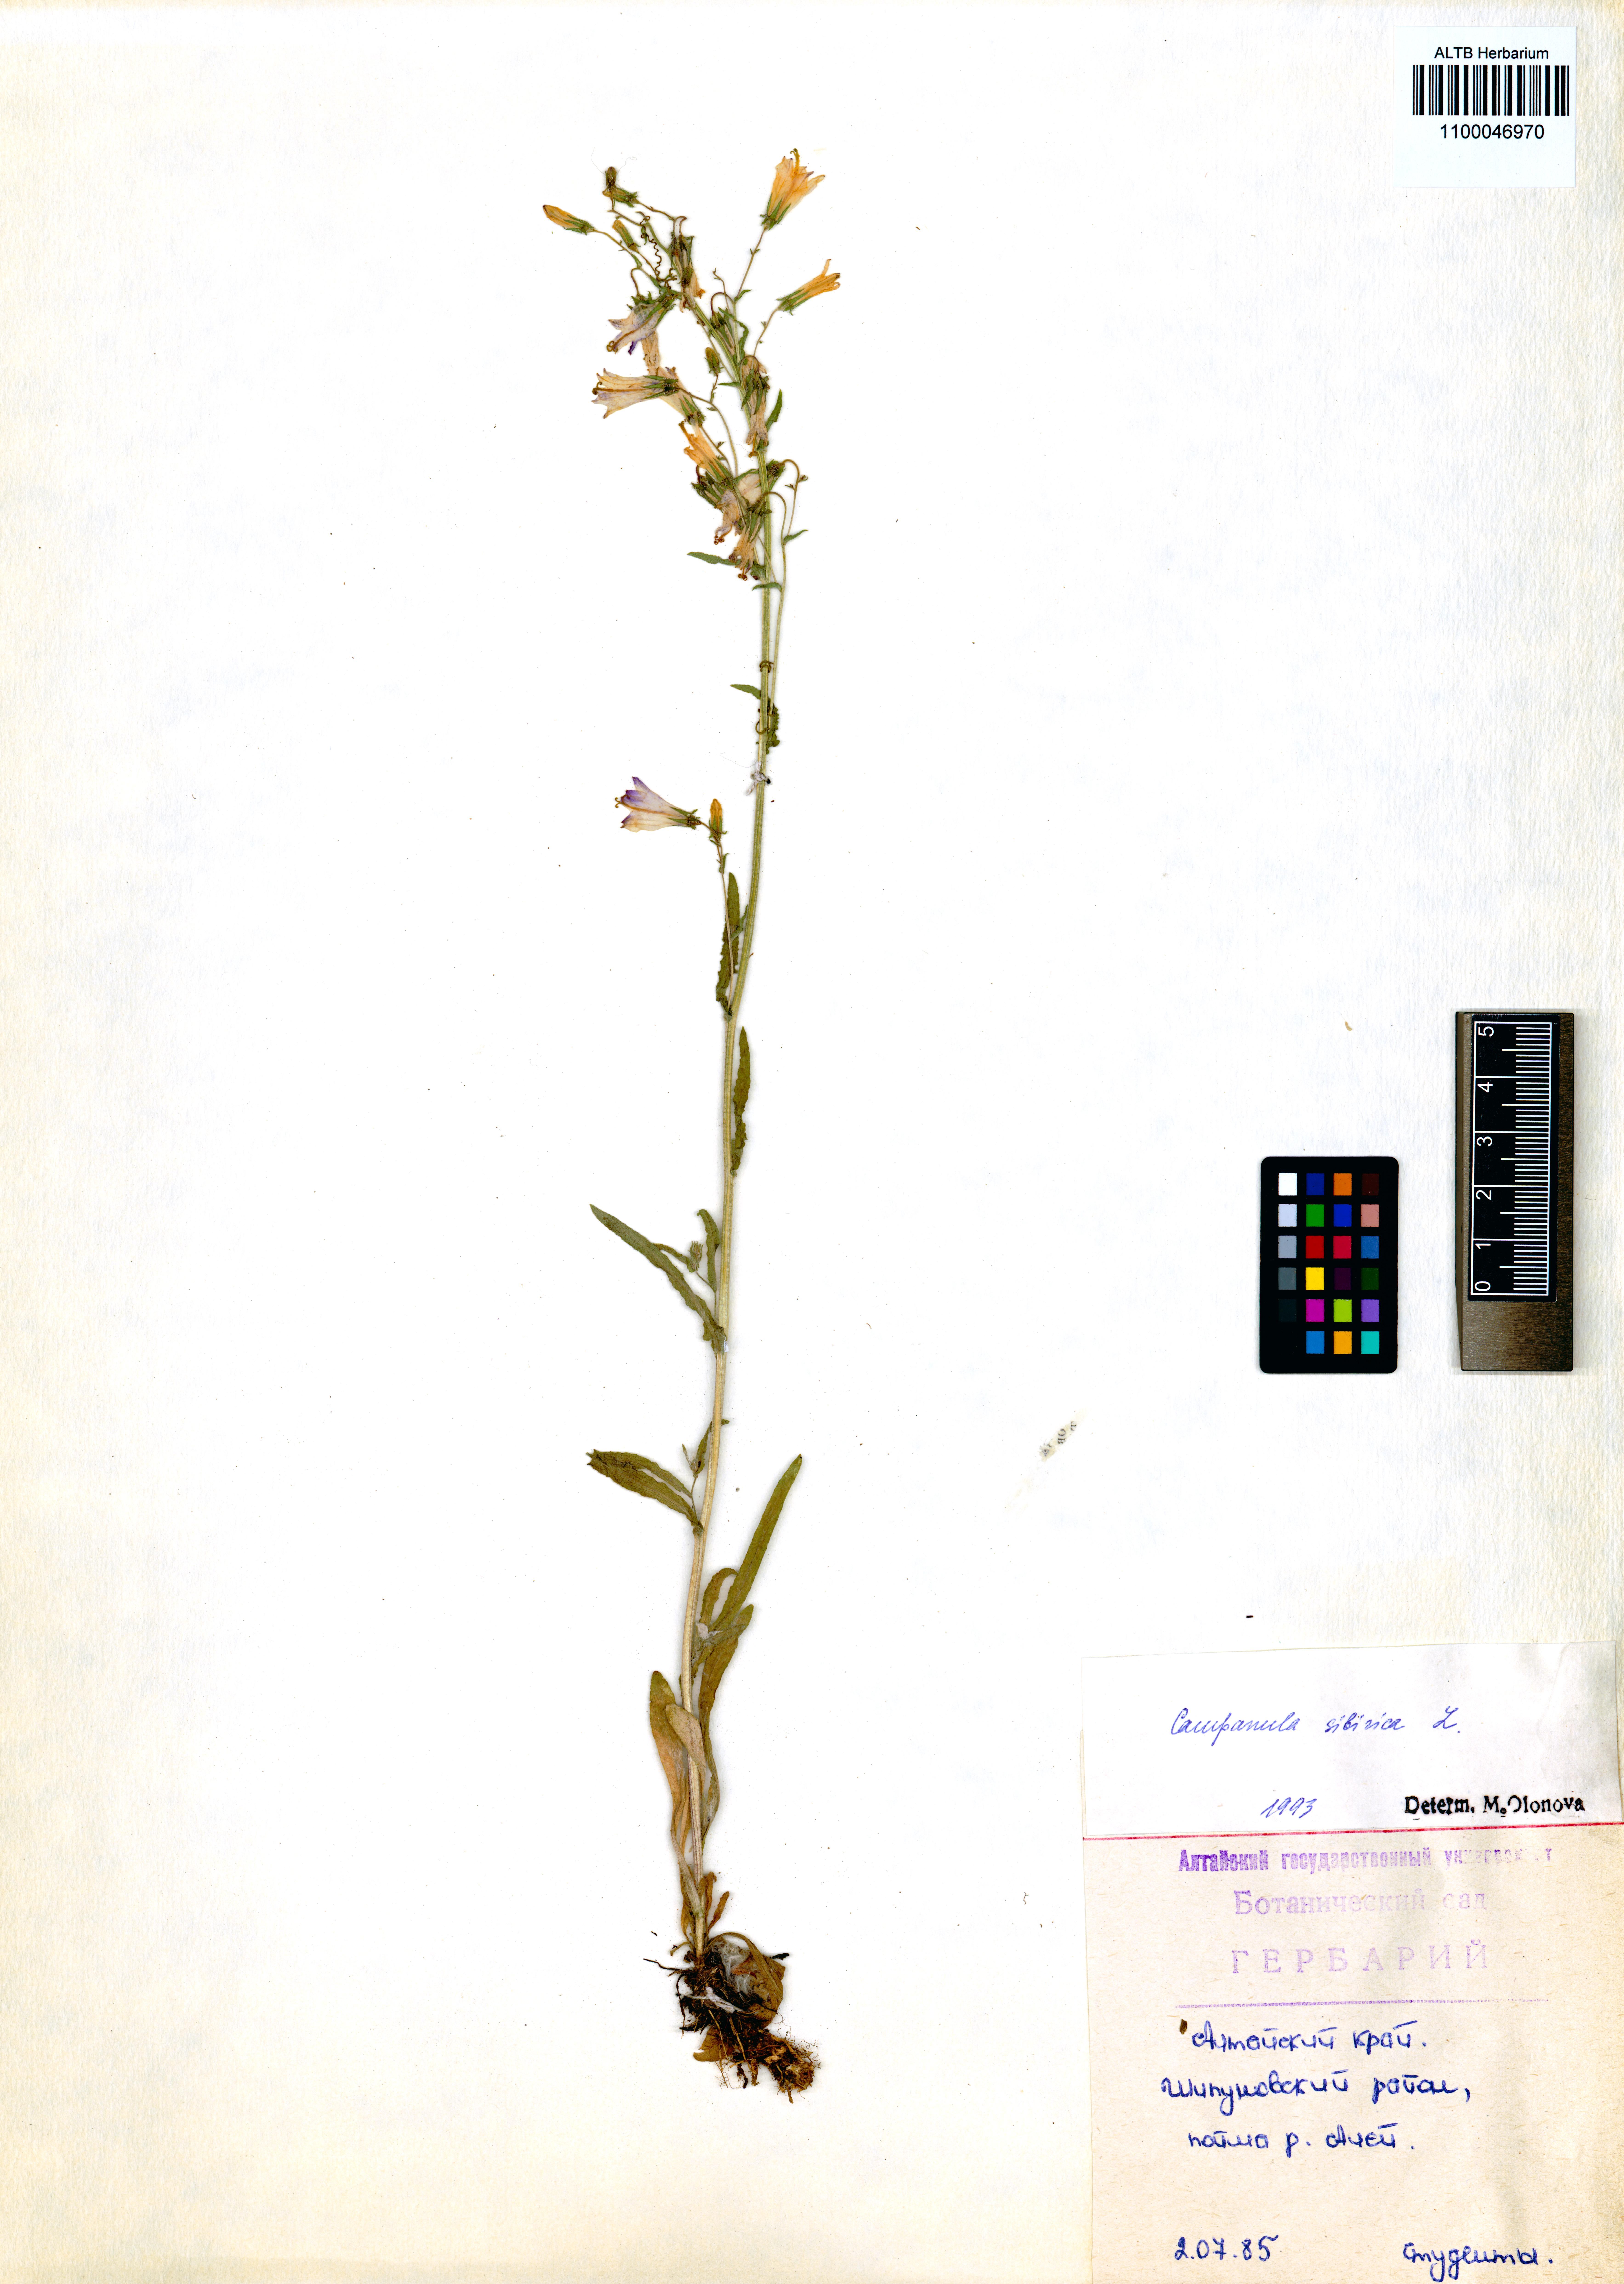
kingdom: Plantae
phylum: Tracheophyta
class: Magnoliopsida
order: Asterales
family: Campanulaceae
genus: Campanula
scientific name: Campanula sibirica
